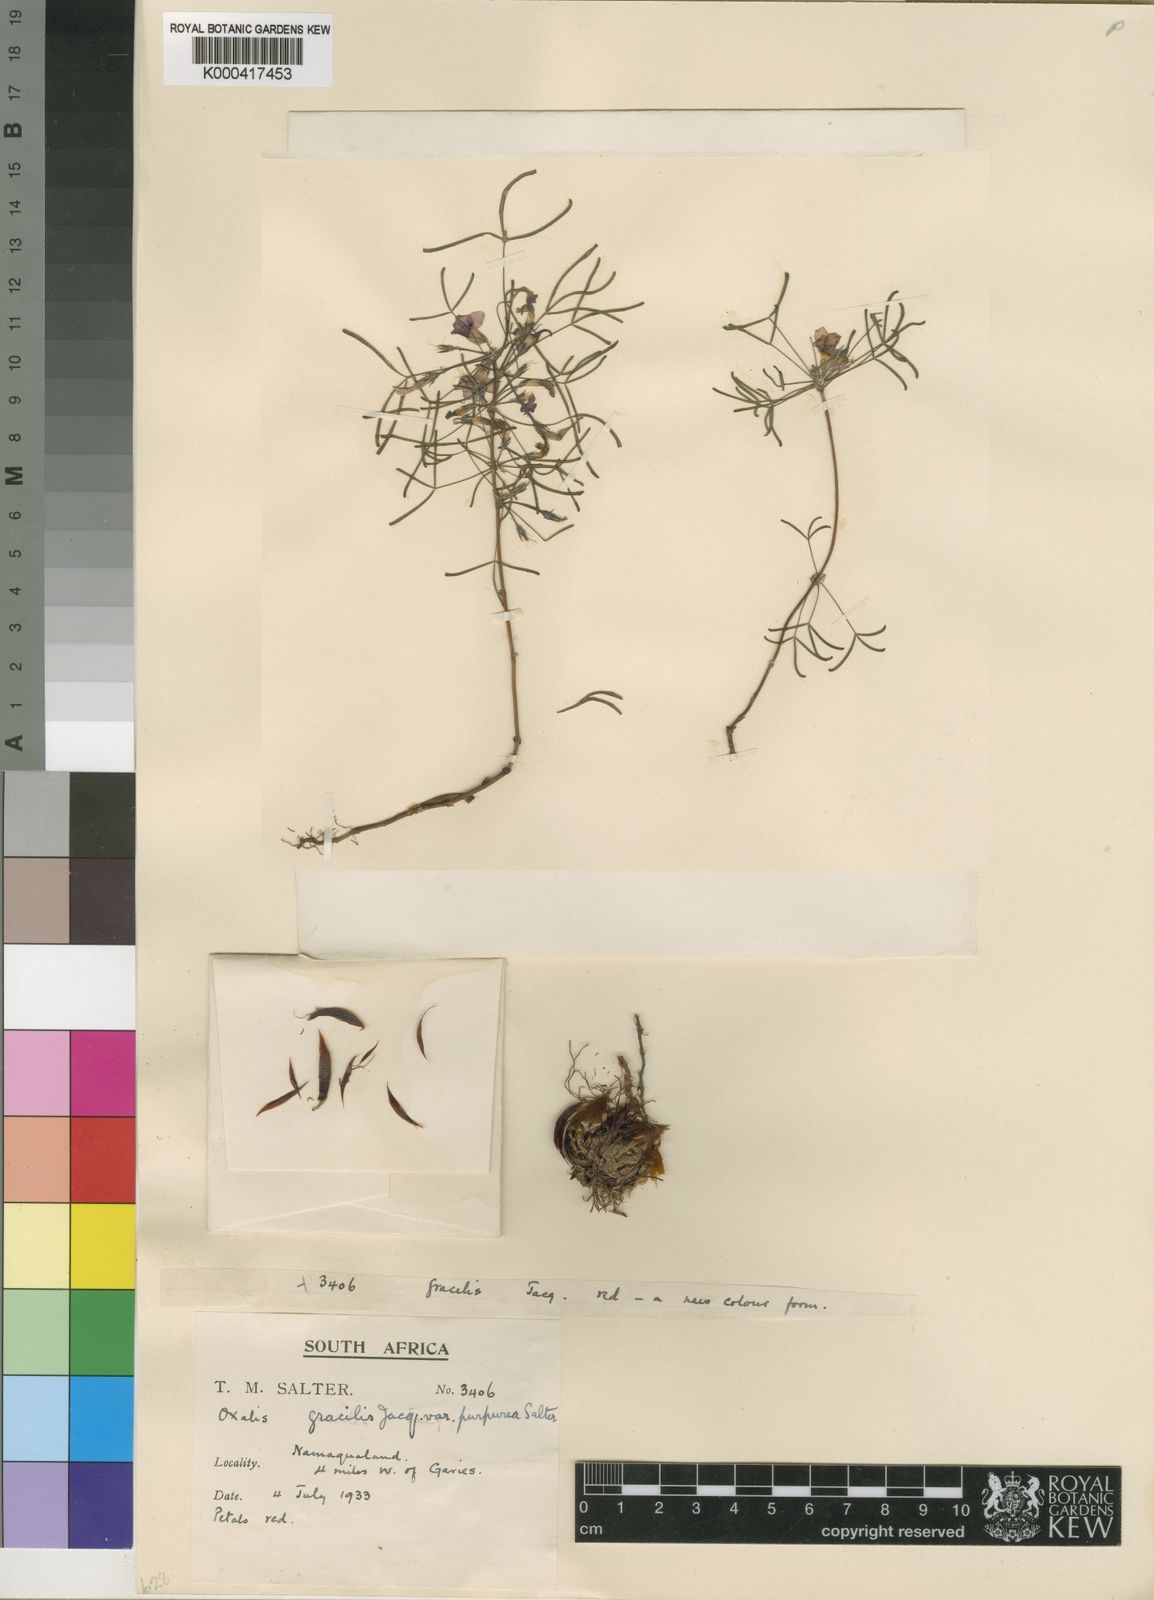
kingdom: Plantae
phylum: Tracheophyta
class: Magnoliopsida
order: Oxalidales
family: Oxalidaceae
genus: Oxalis
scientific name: Oxalis gracilis
